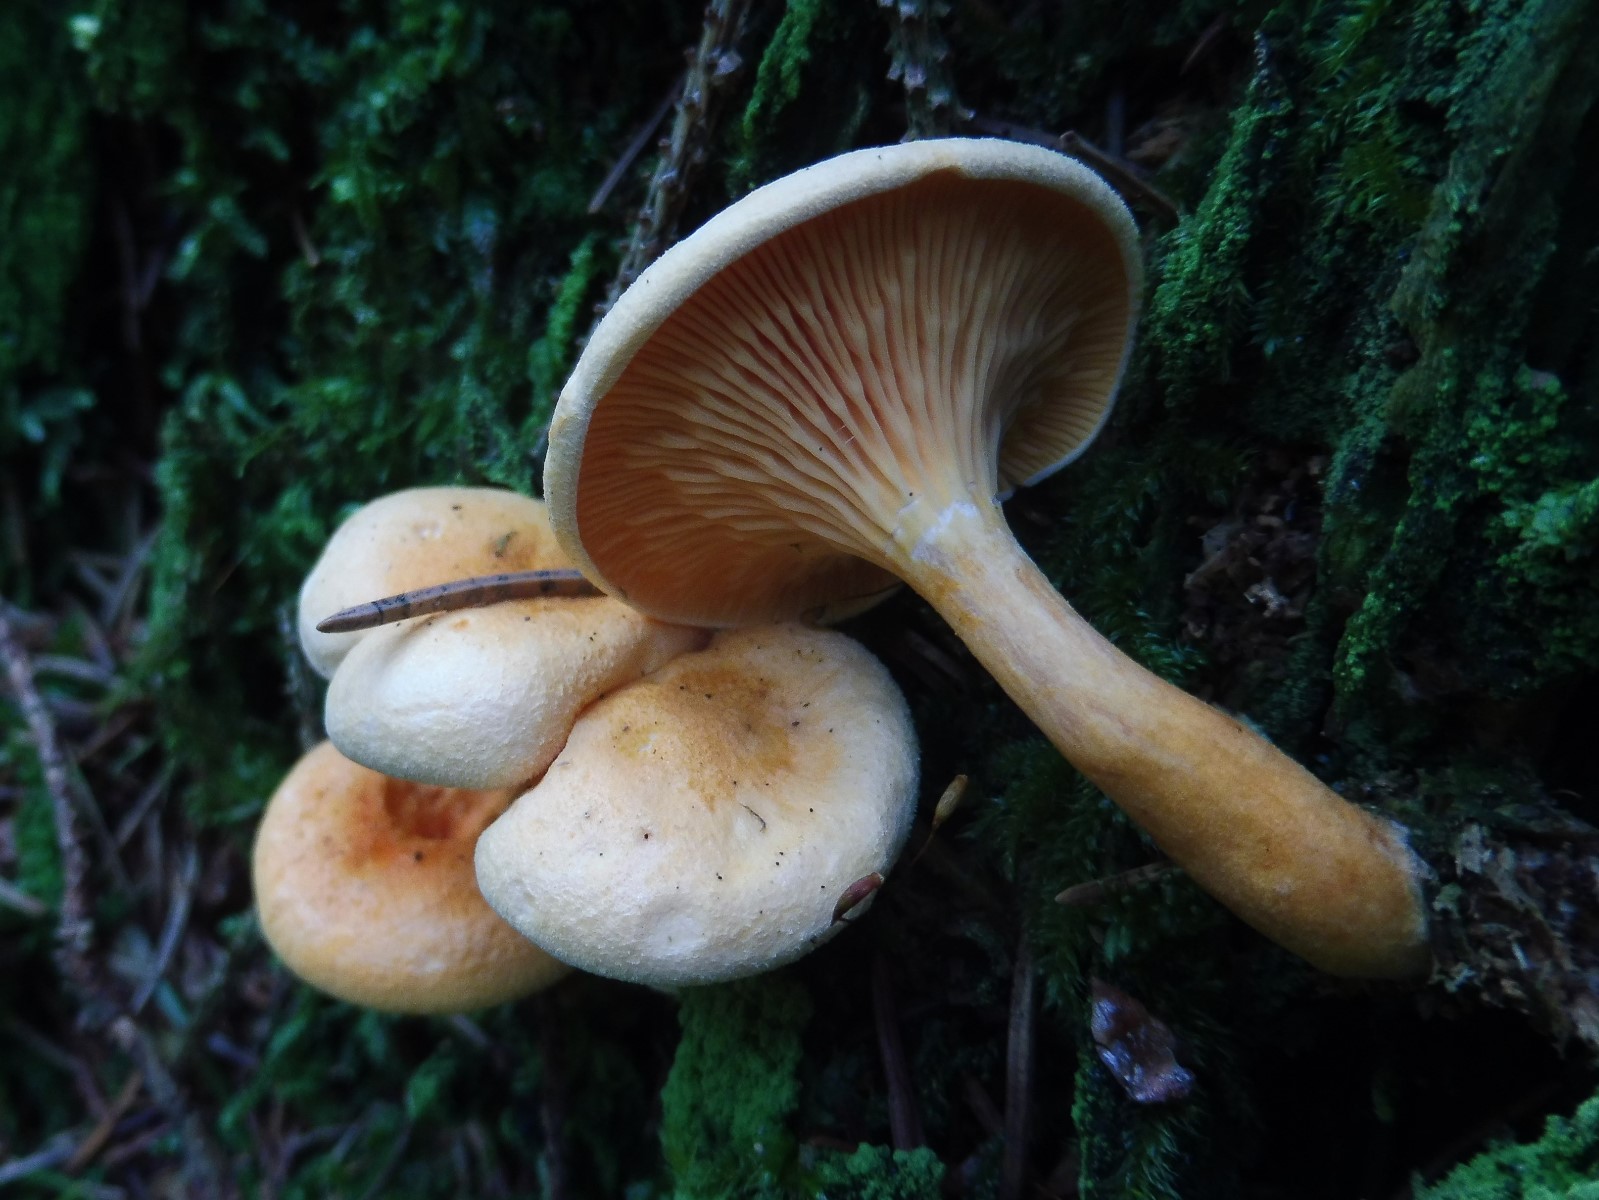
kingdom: Fungi
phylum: Basidiomycota
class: Agaricomycetes
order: Boletales
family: Hygrophoropsidaceae
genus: Hygrophoropsis
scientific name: Hygrophoropsis aurantiaca
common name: almindelig orangekantarel
